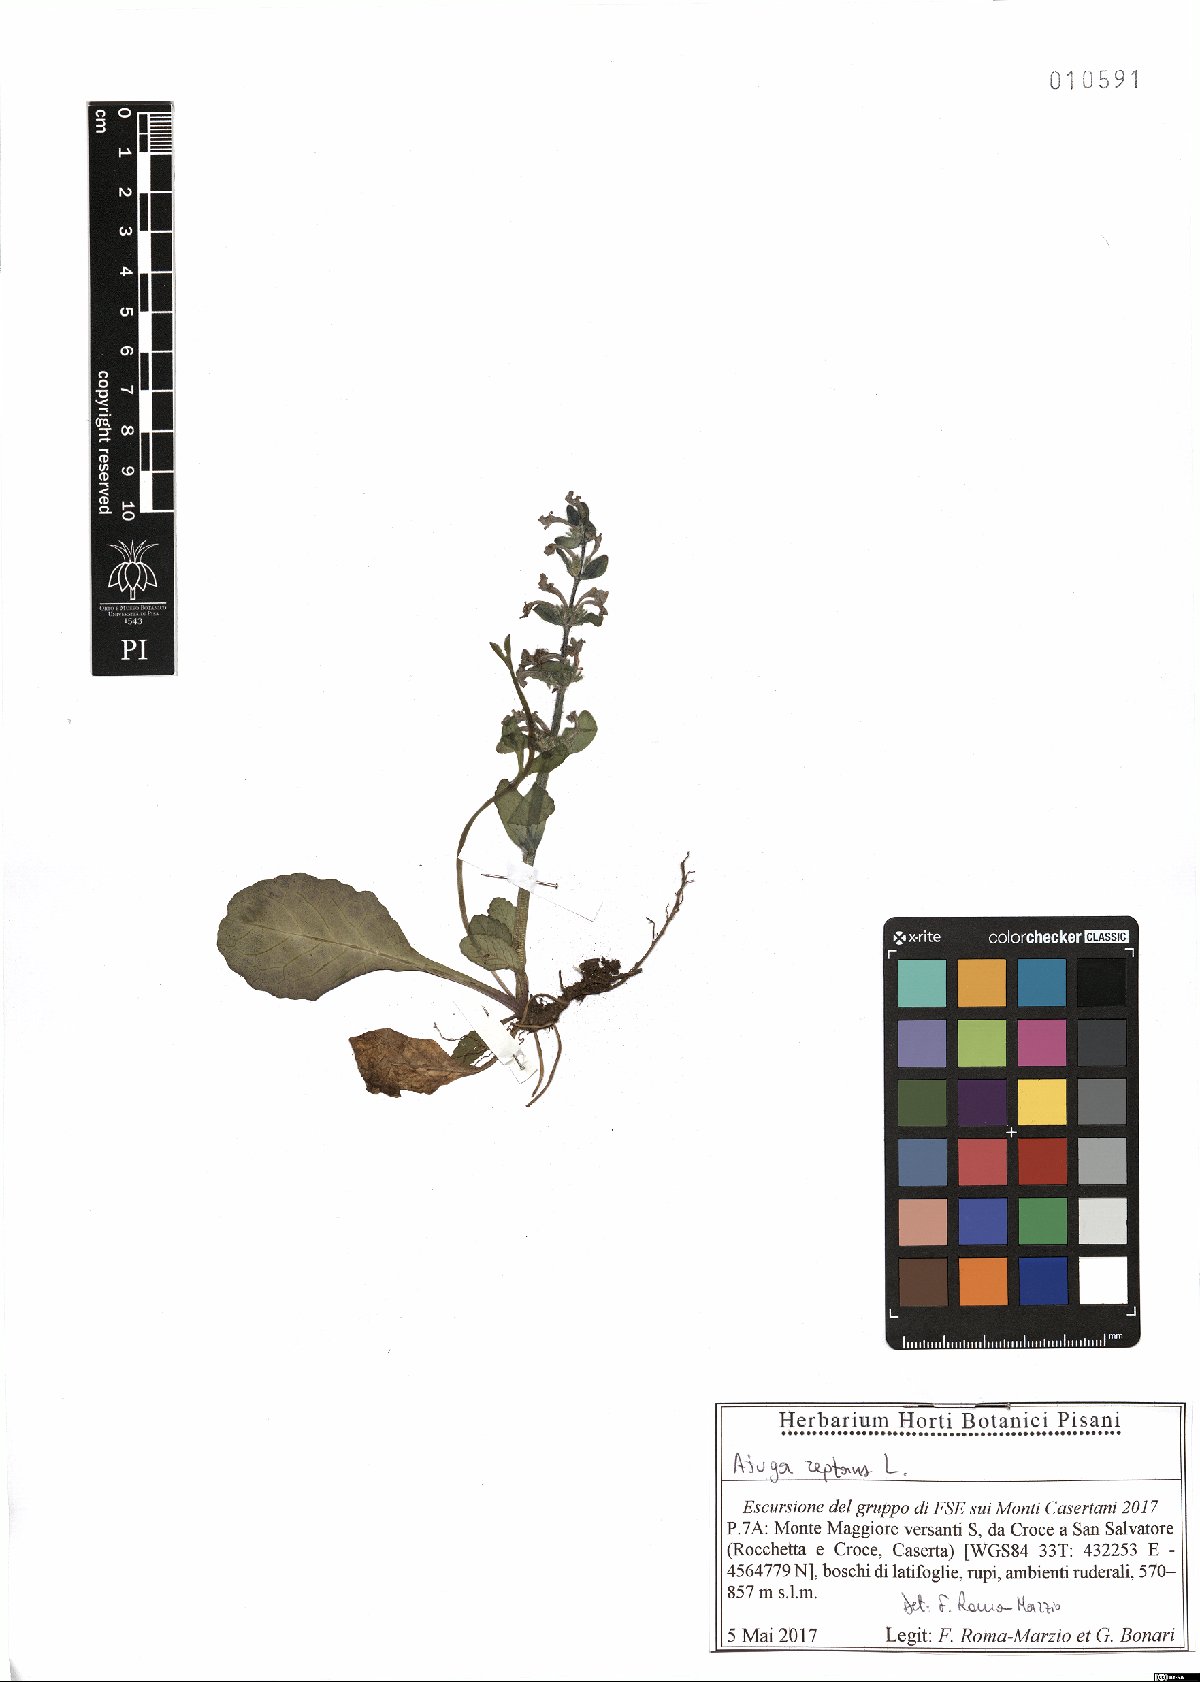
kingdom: Plantae
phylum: Tracheophyta
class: Magnoliopsida
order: Lamiales
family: Lamiaceae
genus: Ajuga
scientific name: Ajuga reptans
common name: Bugle
